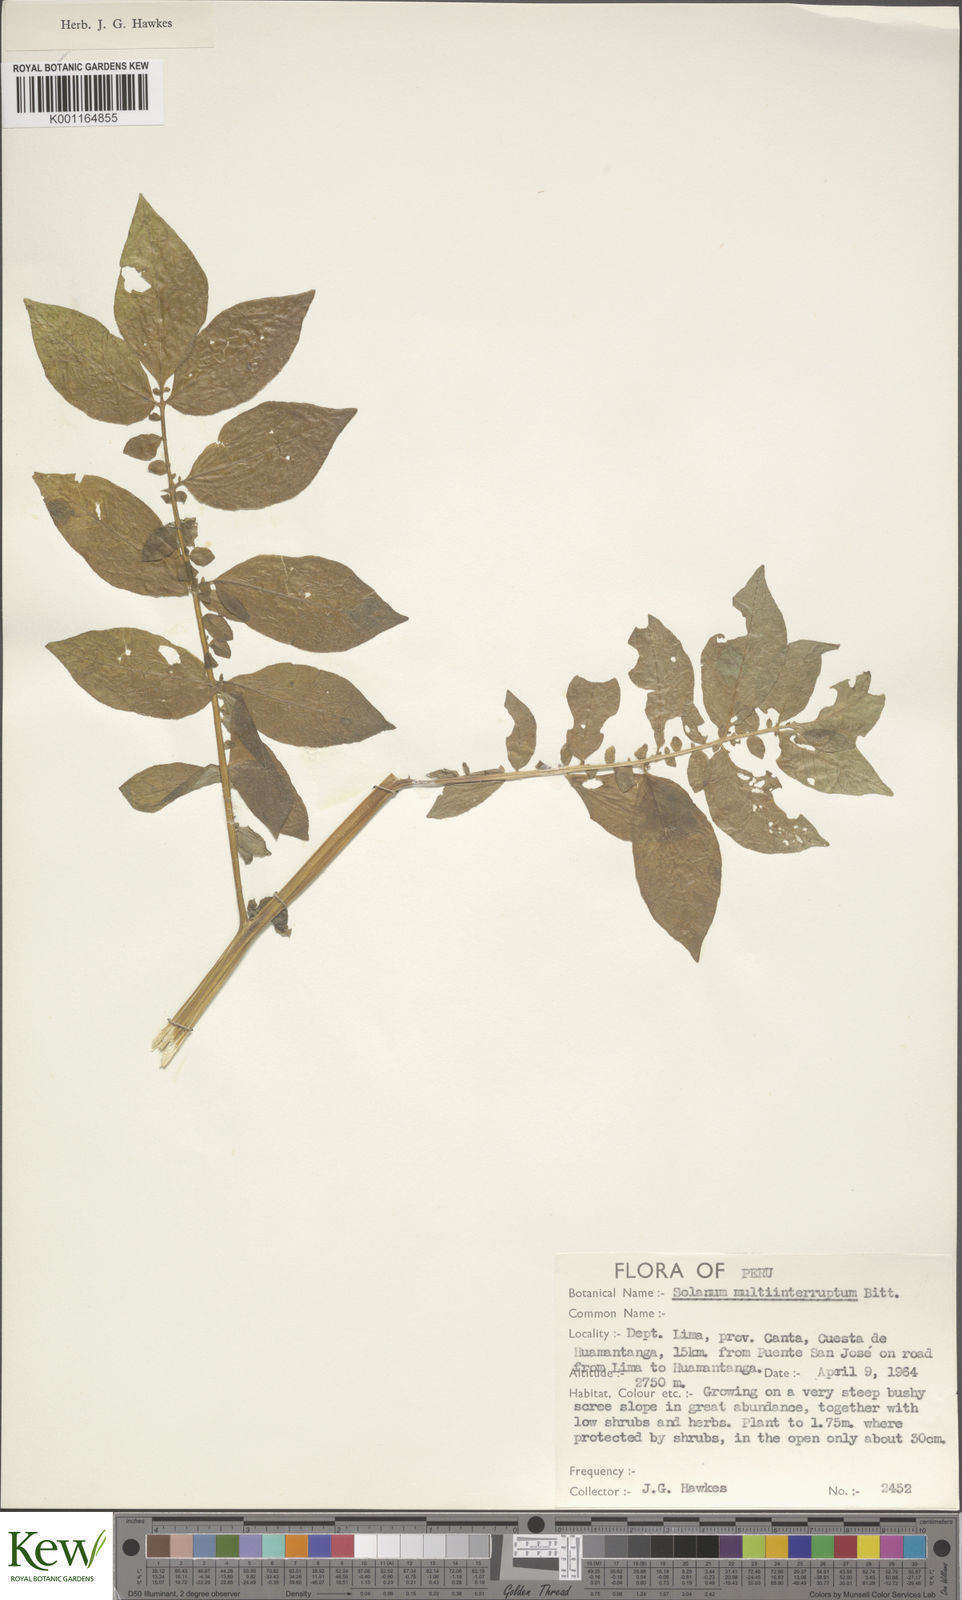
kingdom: Plantae
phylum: Tracheophyta
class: Magnoliopsida
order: Solanales
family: Solanaceae
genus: Solanum
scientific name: Solanum multiinterruptum
